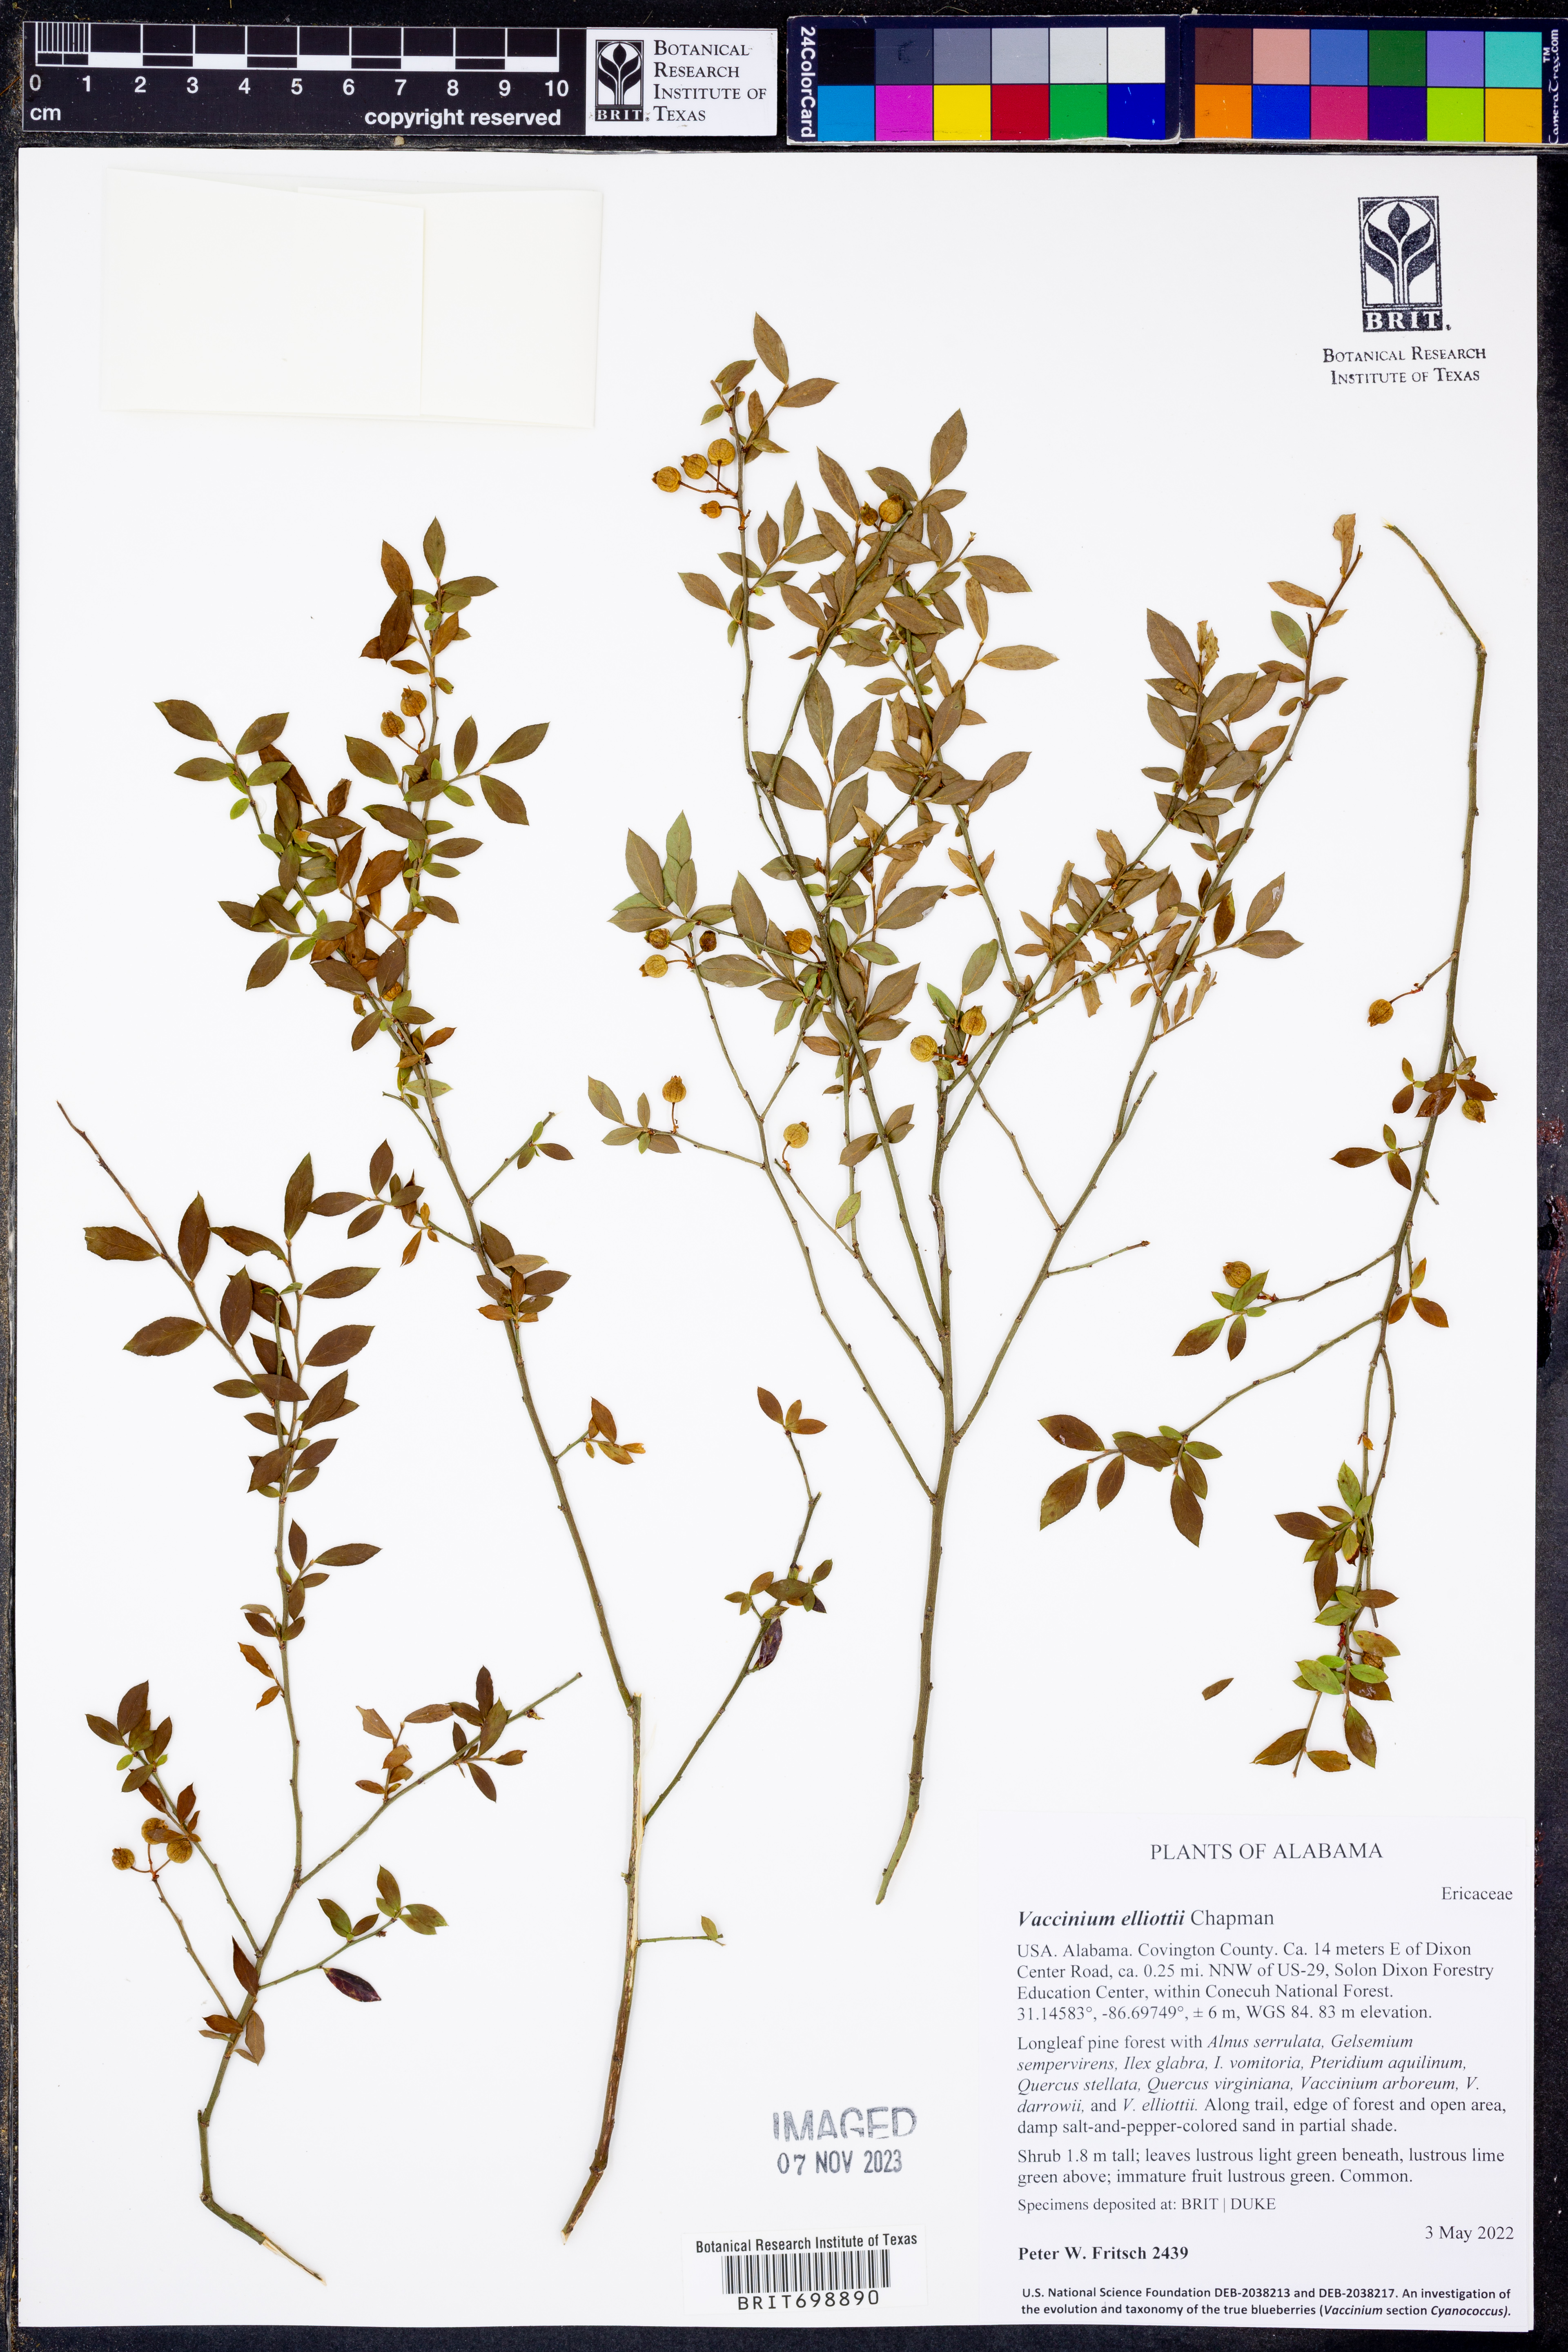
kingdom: Plantae
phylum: Tracheophyta
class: Magnoliopsida
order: Ericales
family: Ericaceae
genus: Vaccinium
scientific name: Vaccinium corymbosum
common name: Blueberry
